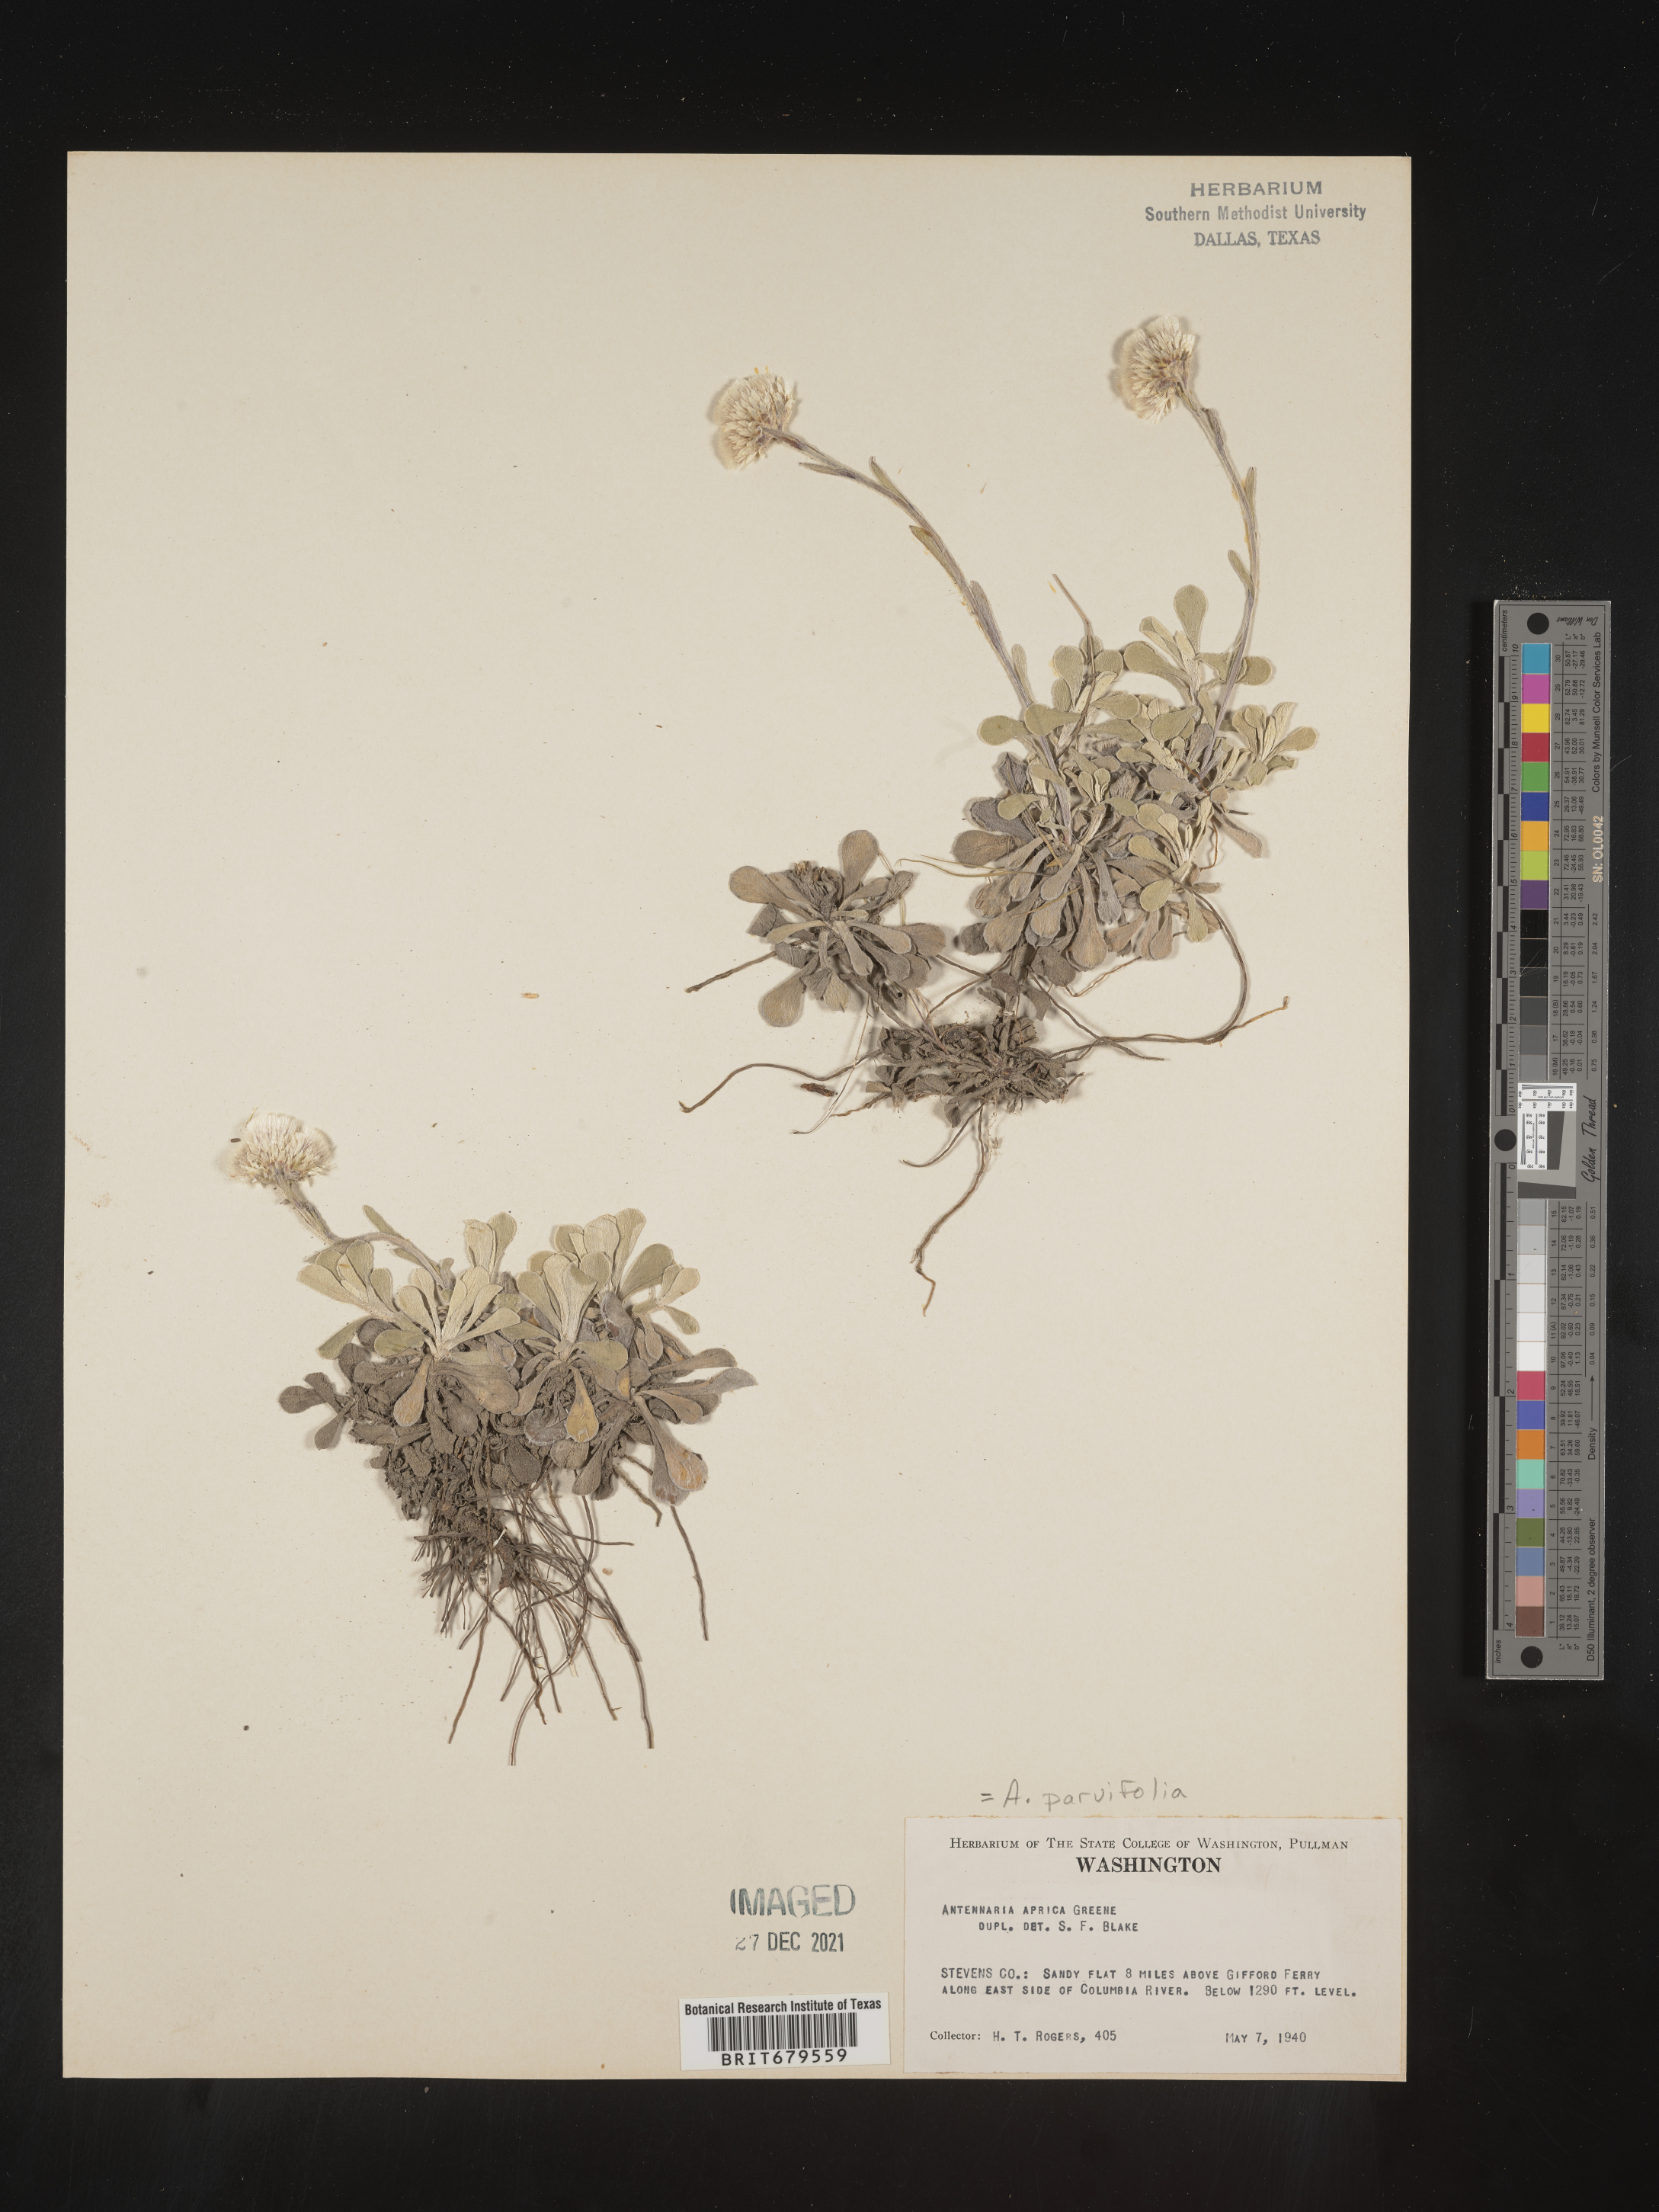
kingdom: Plantae
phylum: Tracheophyta
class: Magnoliopsida
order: Asterales
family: Asteraceae
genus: Antennaria
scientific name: Antennaria parvifolia
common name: Nuttall's pussytoes
